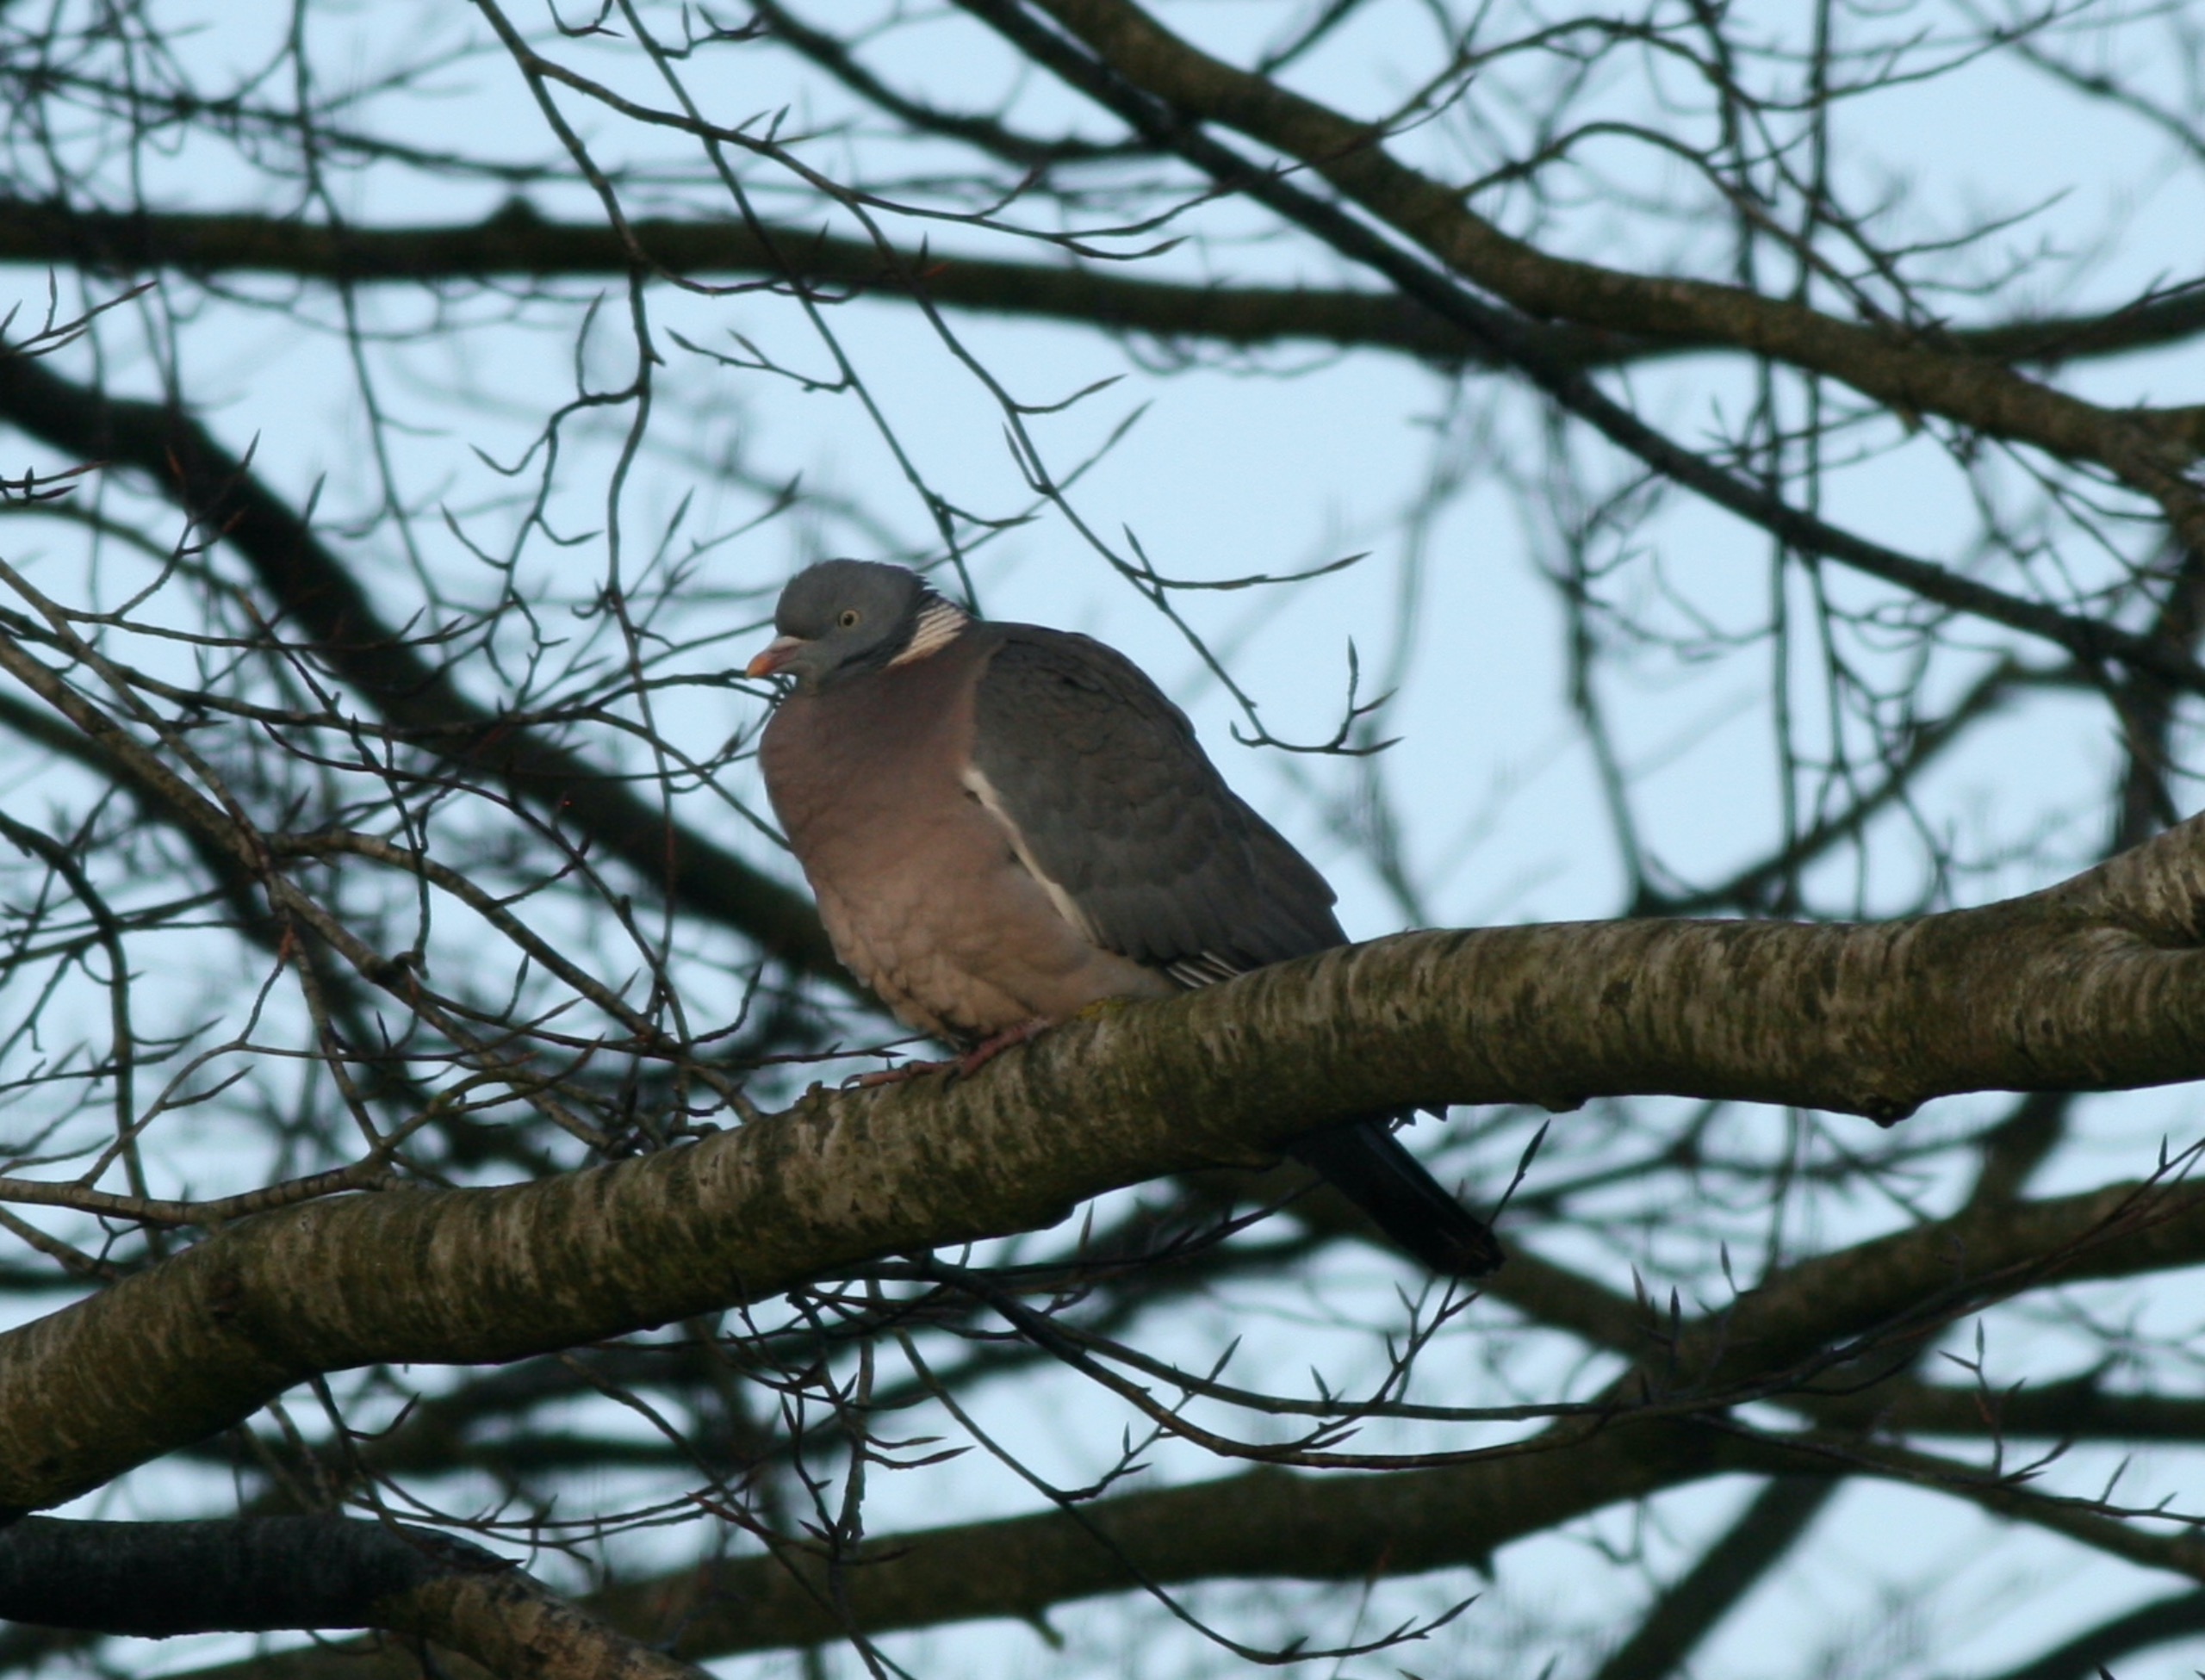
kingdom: Animalia
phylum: Chordata
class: Aves
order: Columbiformes
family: Columbidae
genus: Columba
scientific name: Columba palumbus
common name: Ringdue
